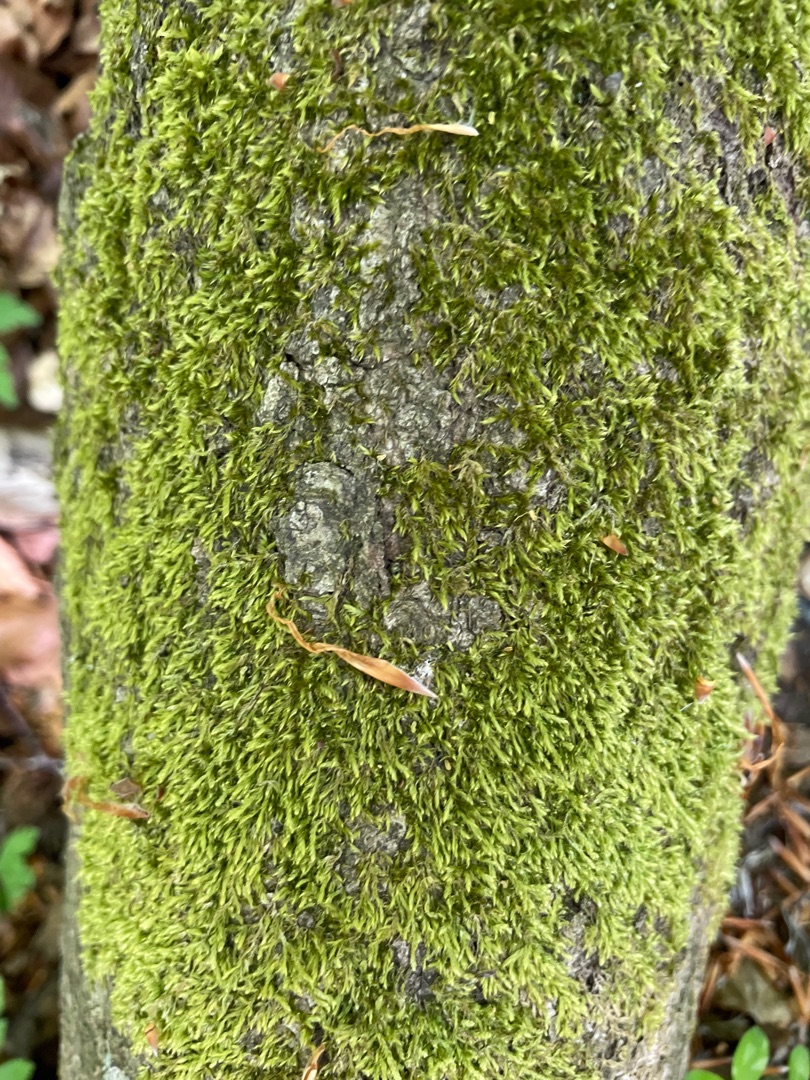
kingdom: Plantae
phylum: Bryophyta
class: Bryopsida
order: Hypnales
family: Hypnaceae
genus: Hypnum
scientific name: Hypnum
